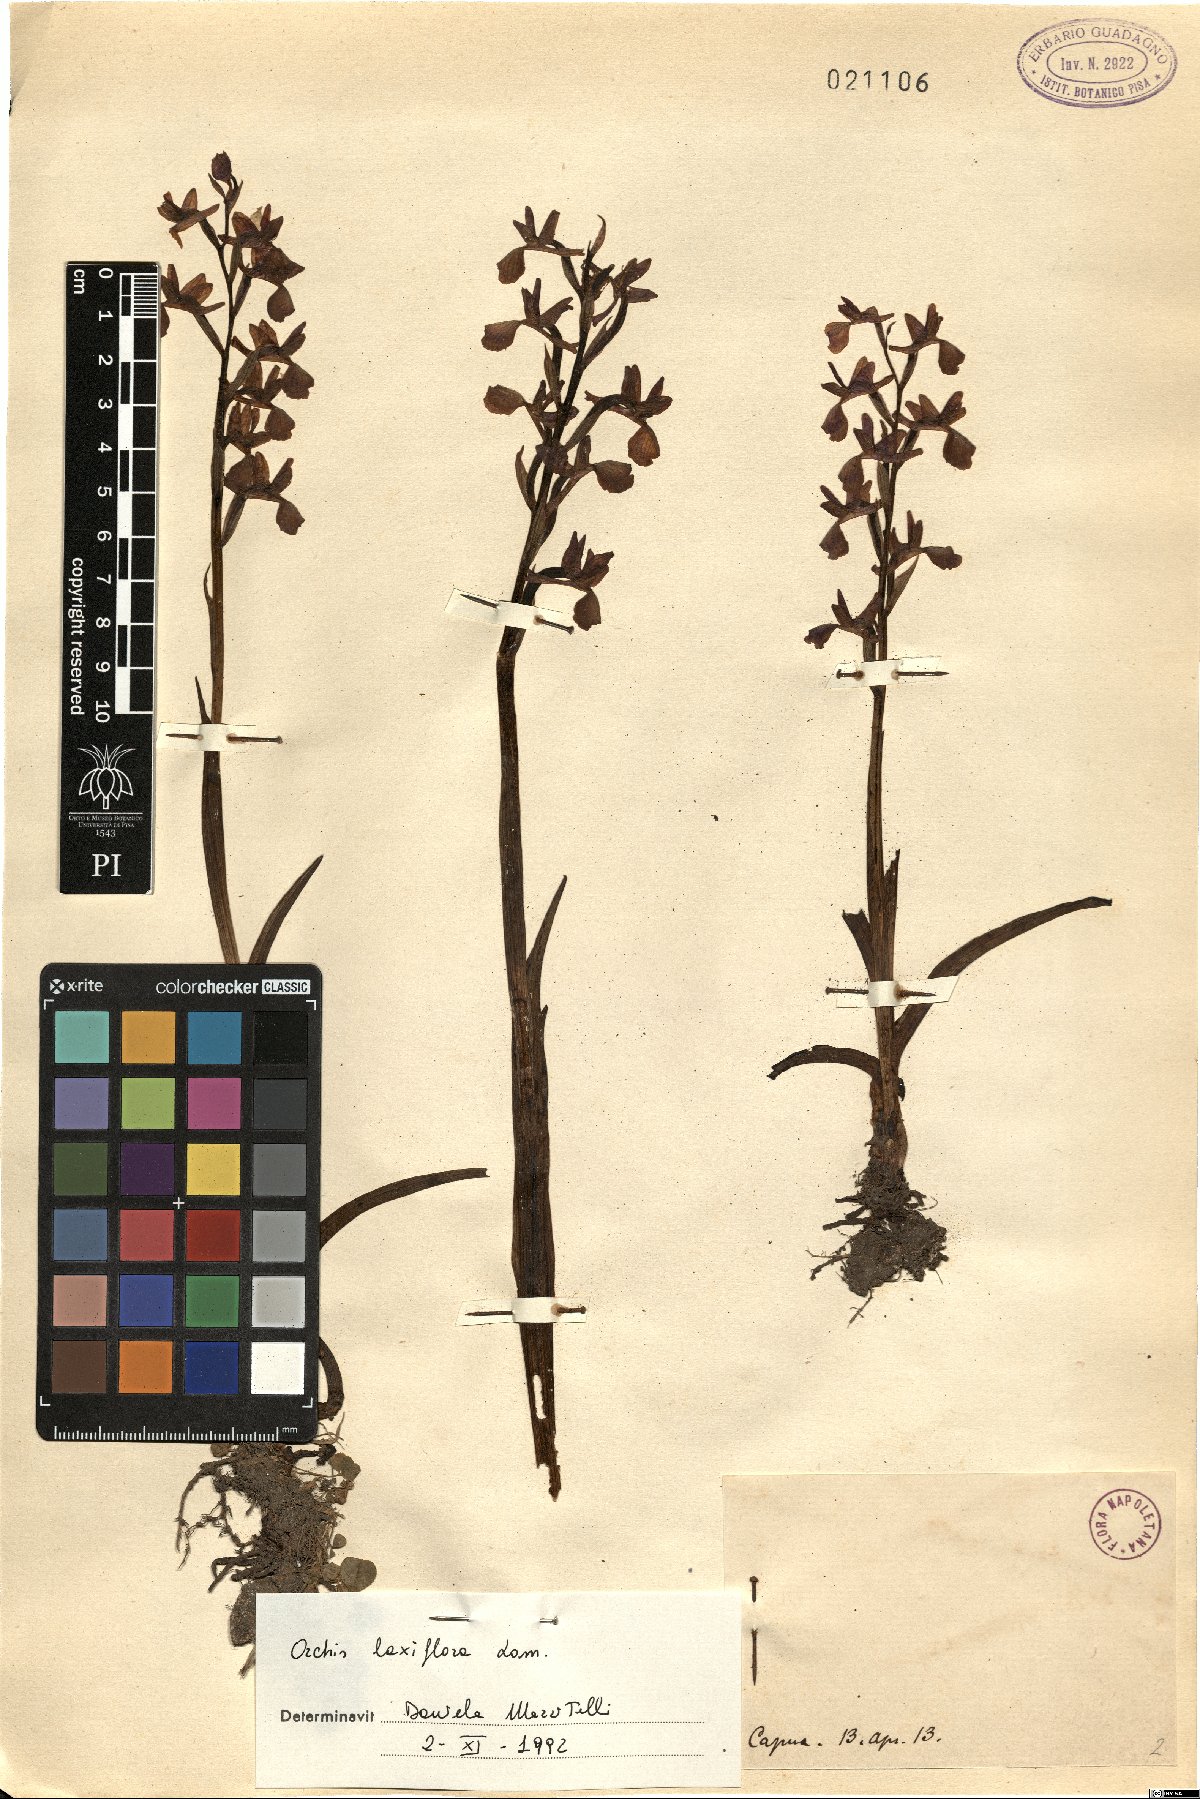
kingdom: Plantae
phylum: Tracheophyta
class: Liliopsida
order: Asparagales
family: Orchidaceae
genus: Anacamptis
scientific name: Anacamptis laxiflora
